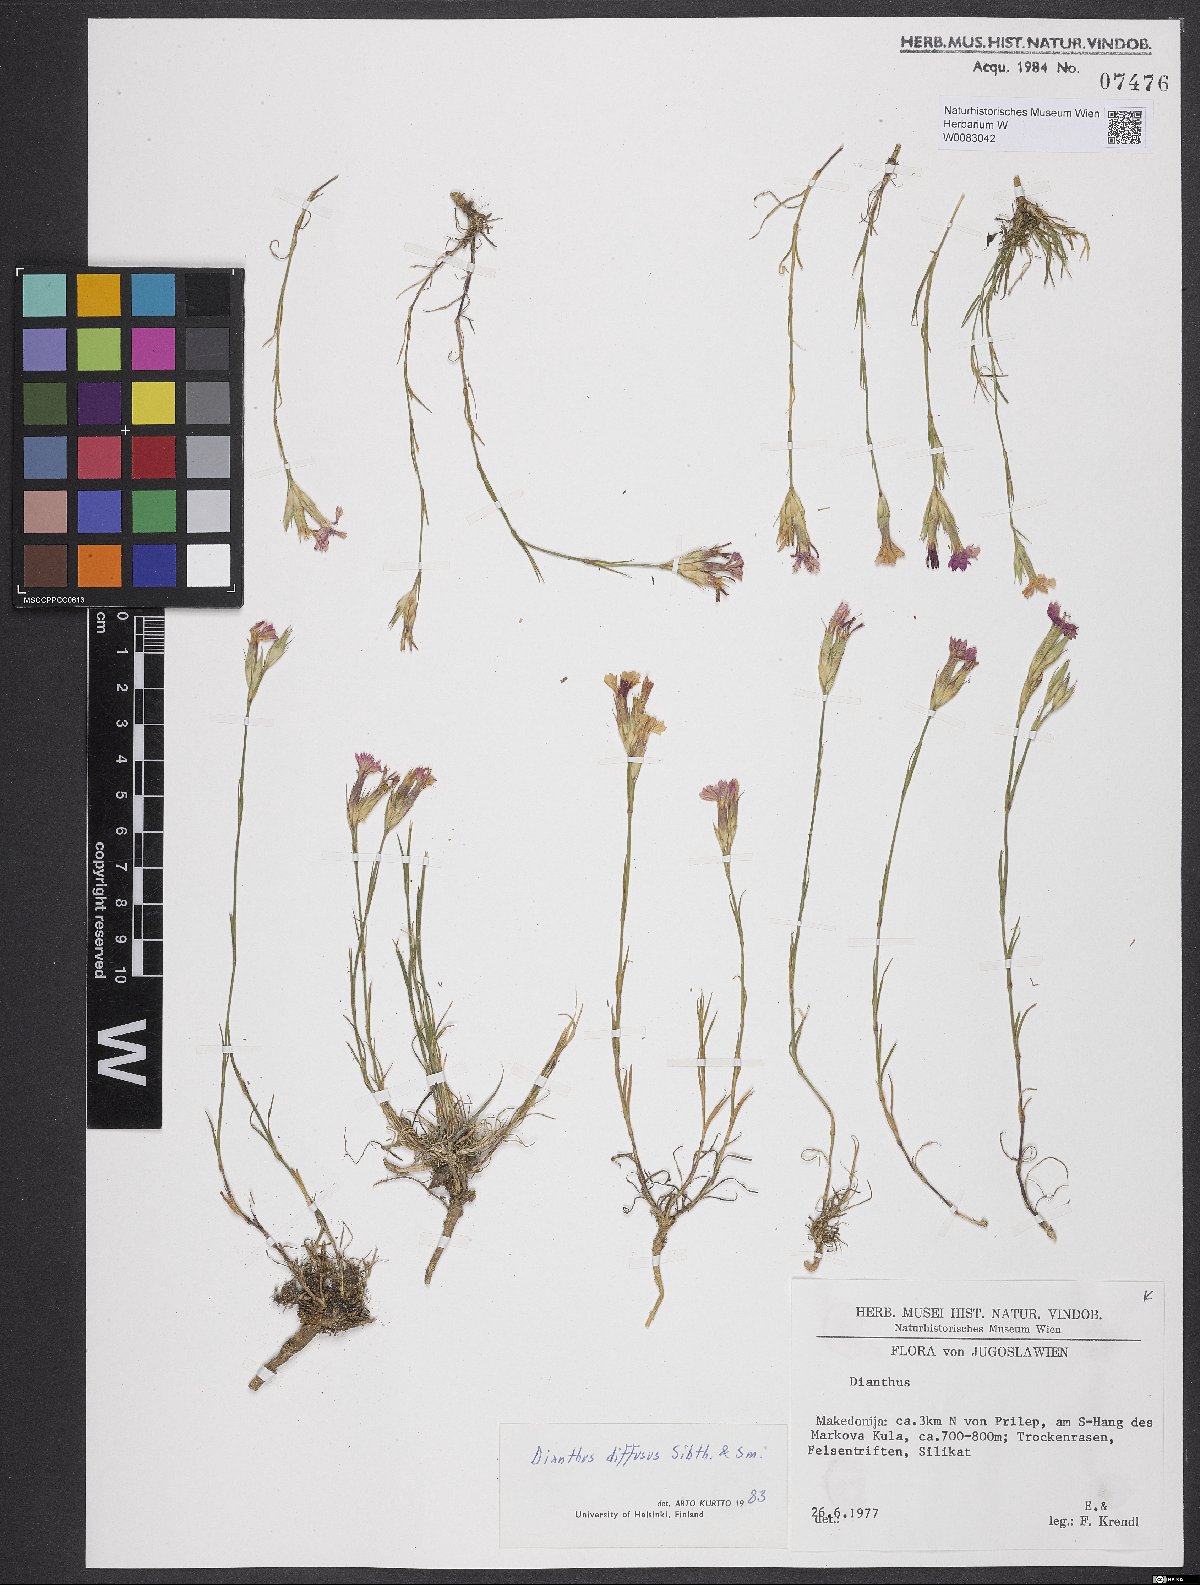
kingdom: Plantae
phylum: Tracheophyta
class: Magnoliopsida
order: Caryophyllales
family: Caryophyllaceae
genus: Dianthus
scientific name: Dianthus diffusus
